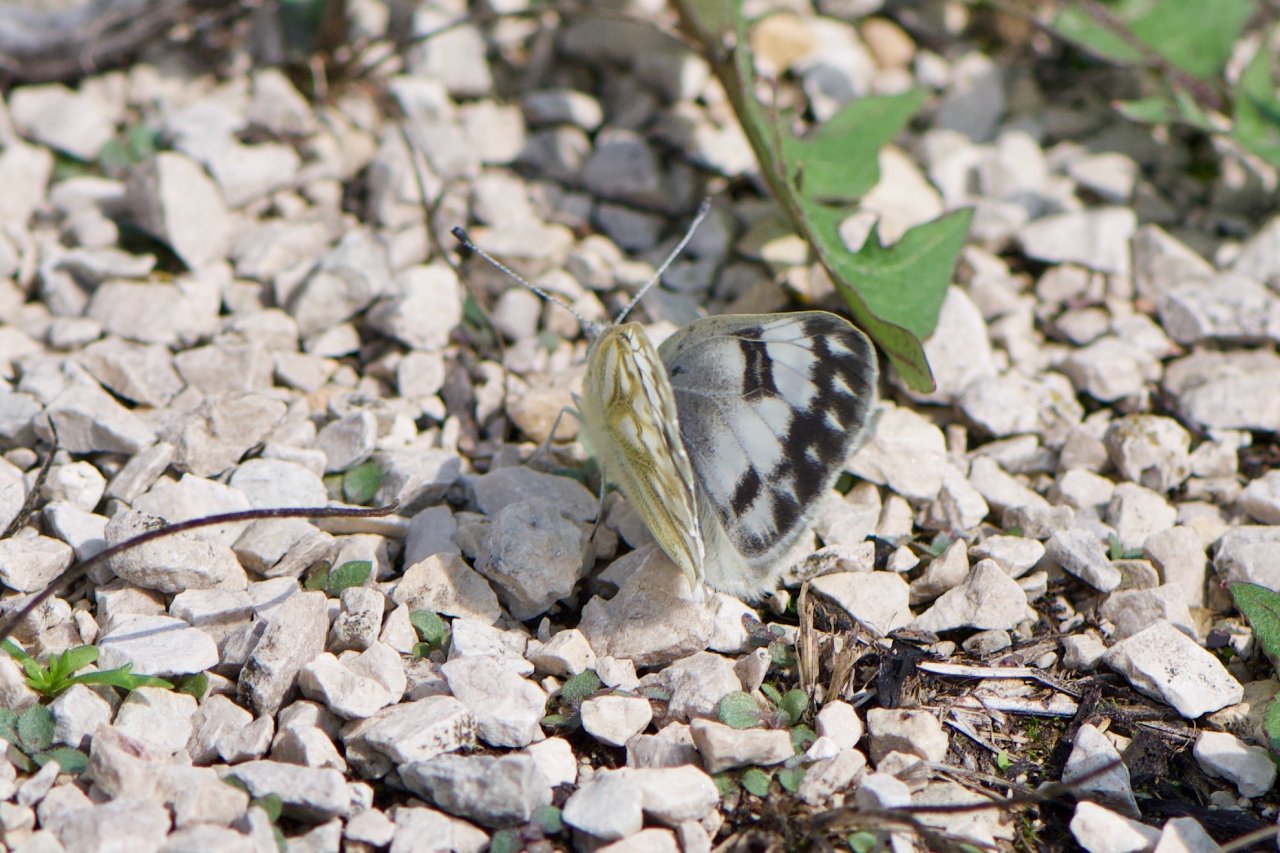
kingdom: Animalia
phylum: Arthropoda
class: Insecta
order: Lepidoptera
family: Pieridae
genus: Pontia
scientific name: Pontia occidentalis
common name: Western White
